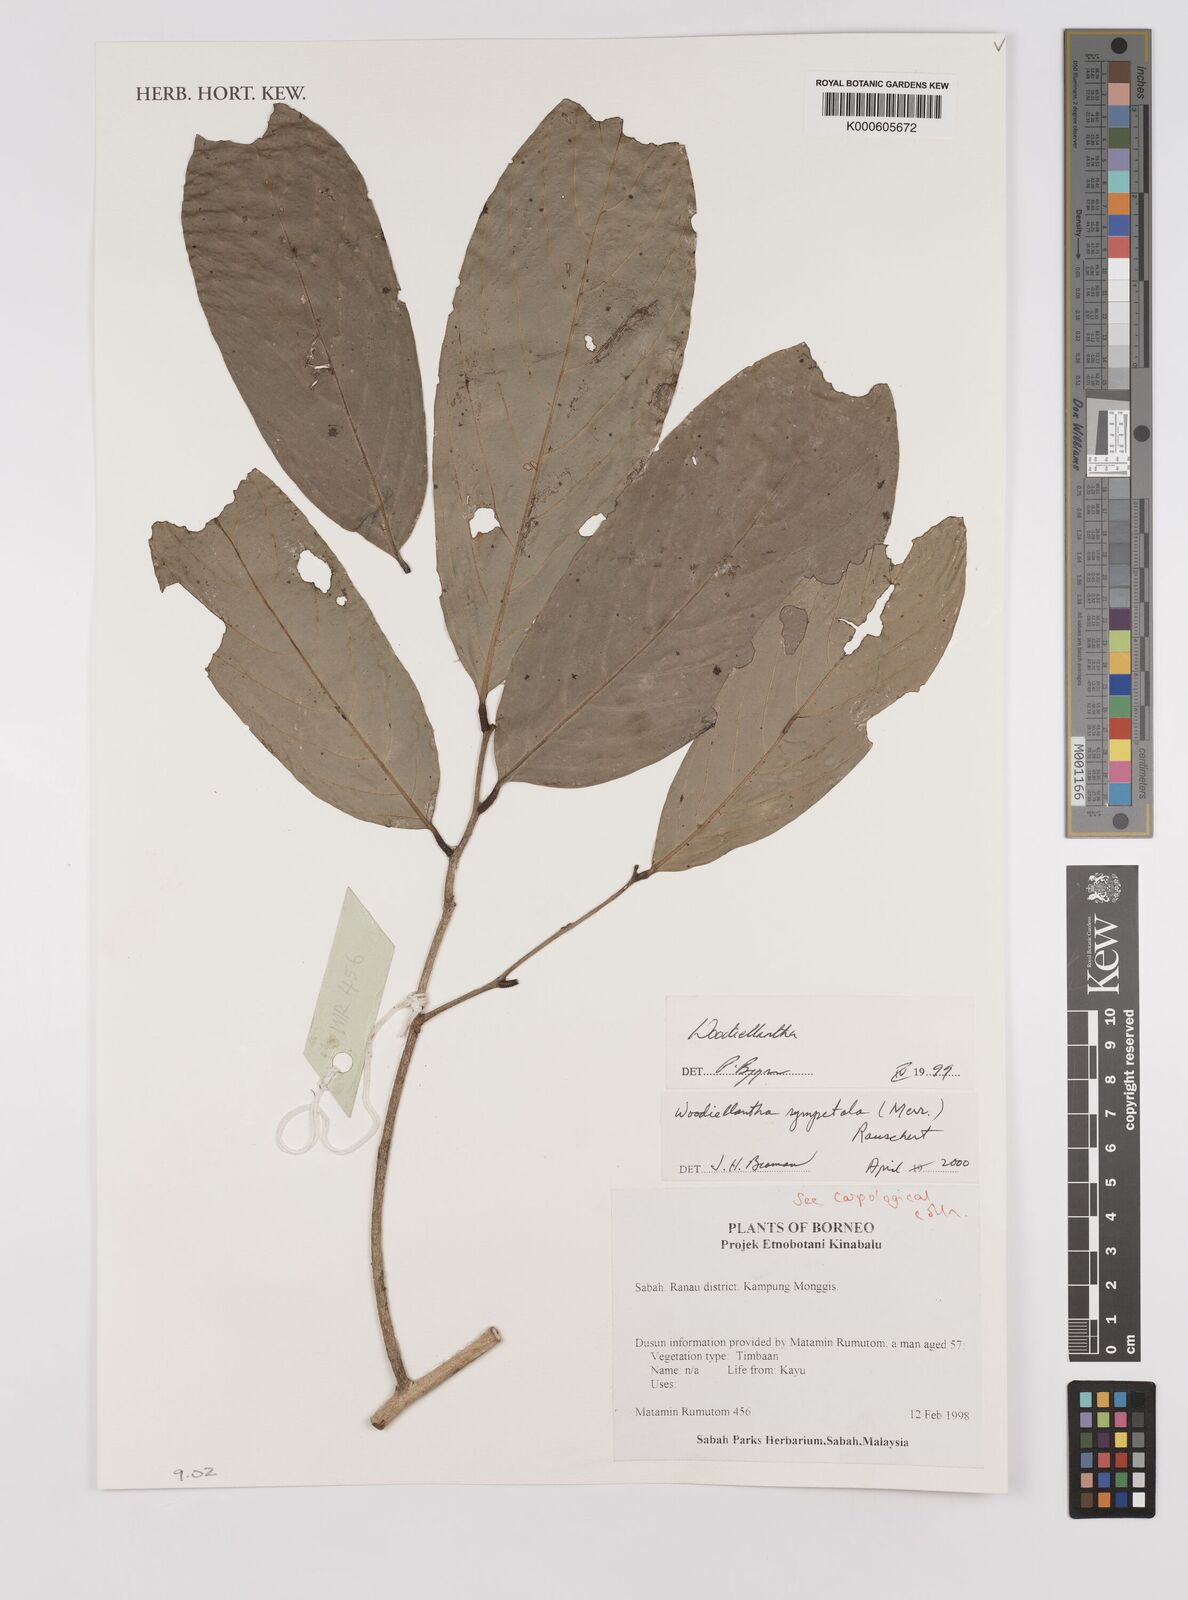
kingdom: Plantae
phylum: Tracheophyta
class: Magnoliopsida
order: Magnoliales
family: Annonaceae
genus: Woodiellantha
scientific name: Woodiellantha sympetala
